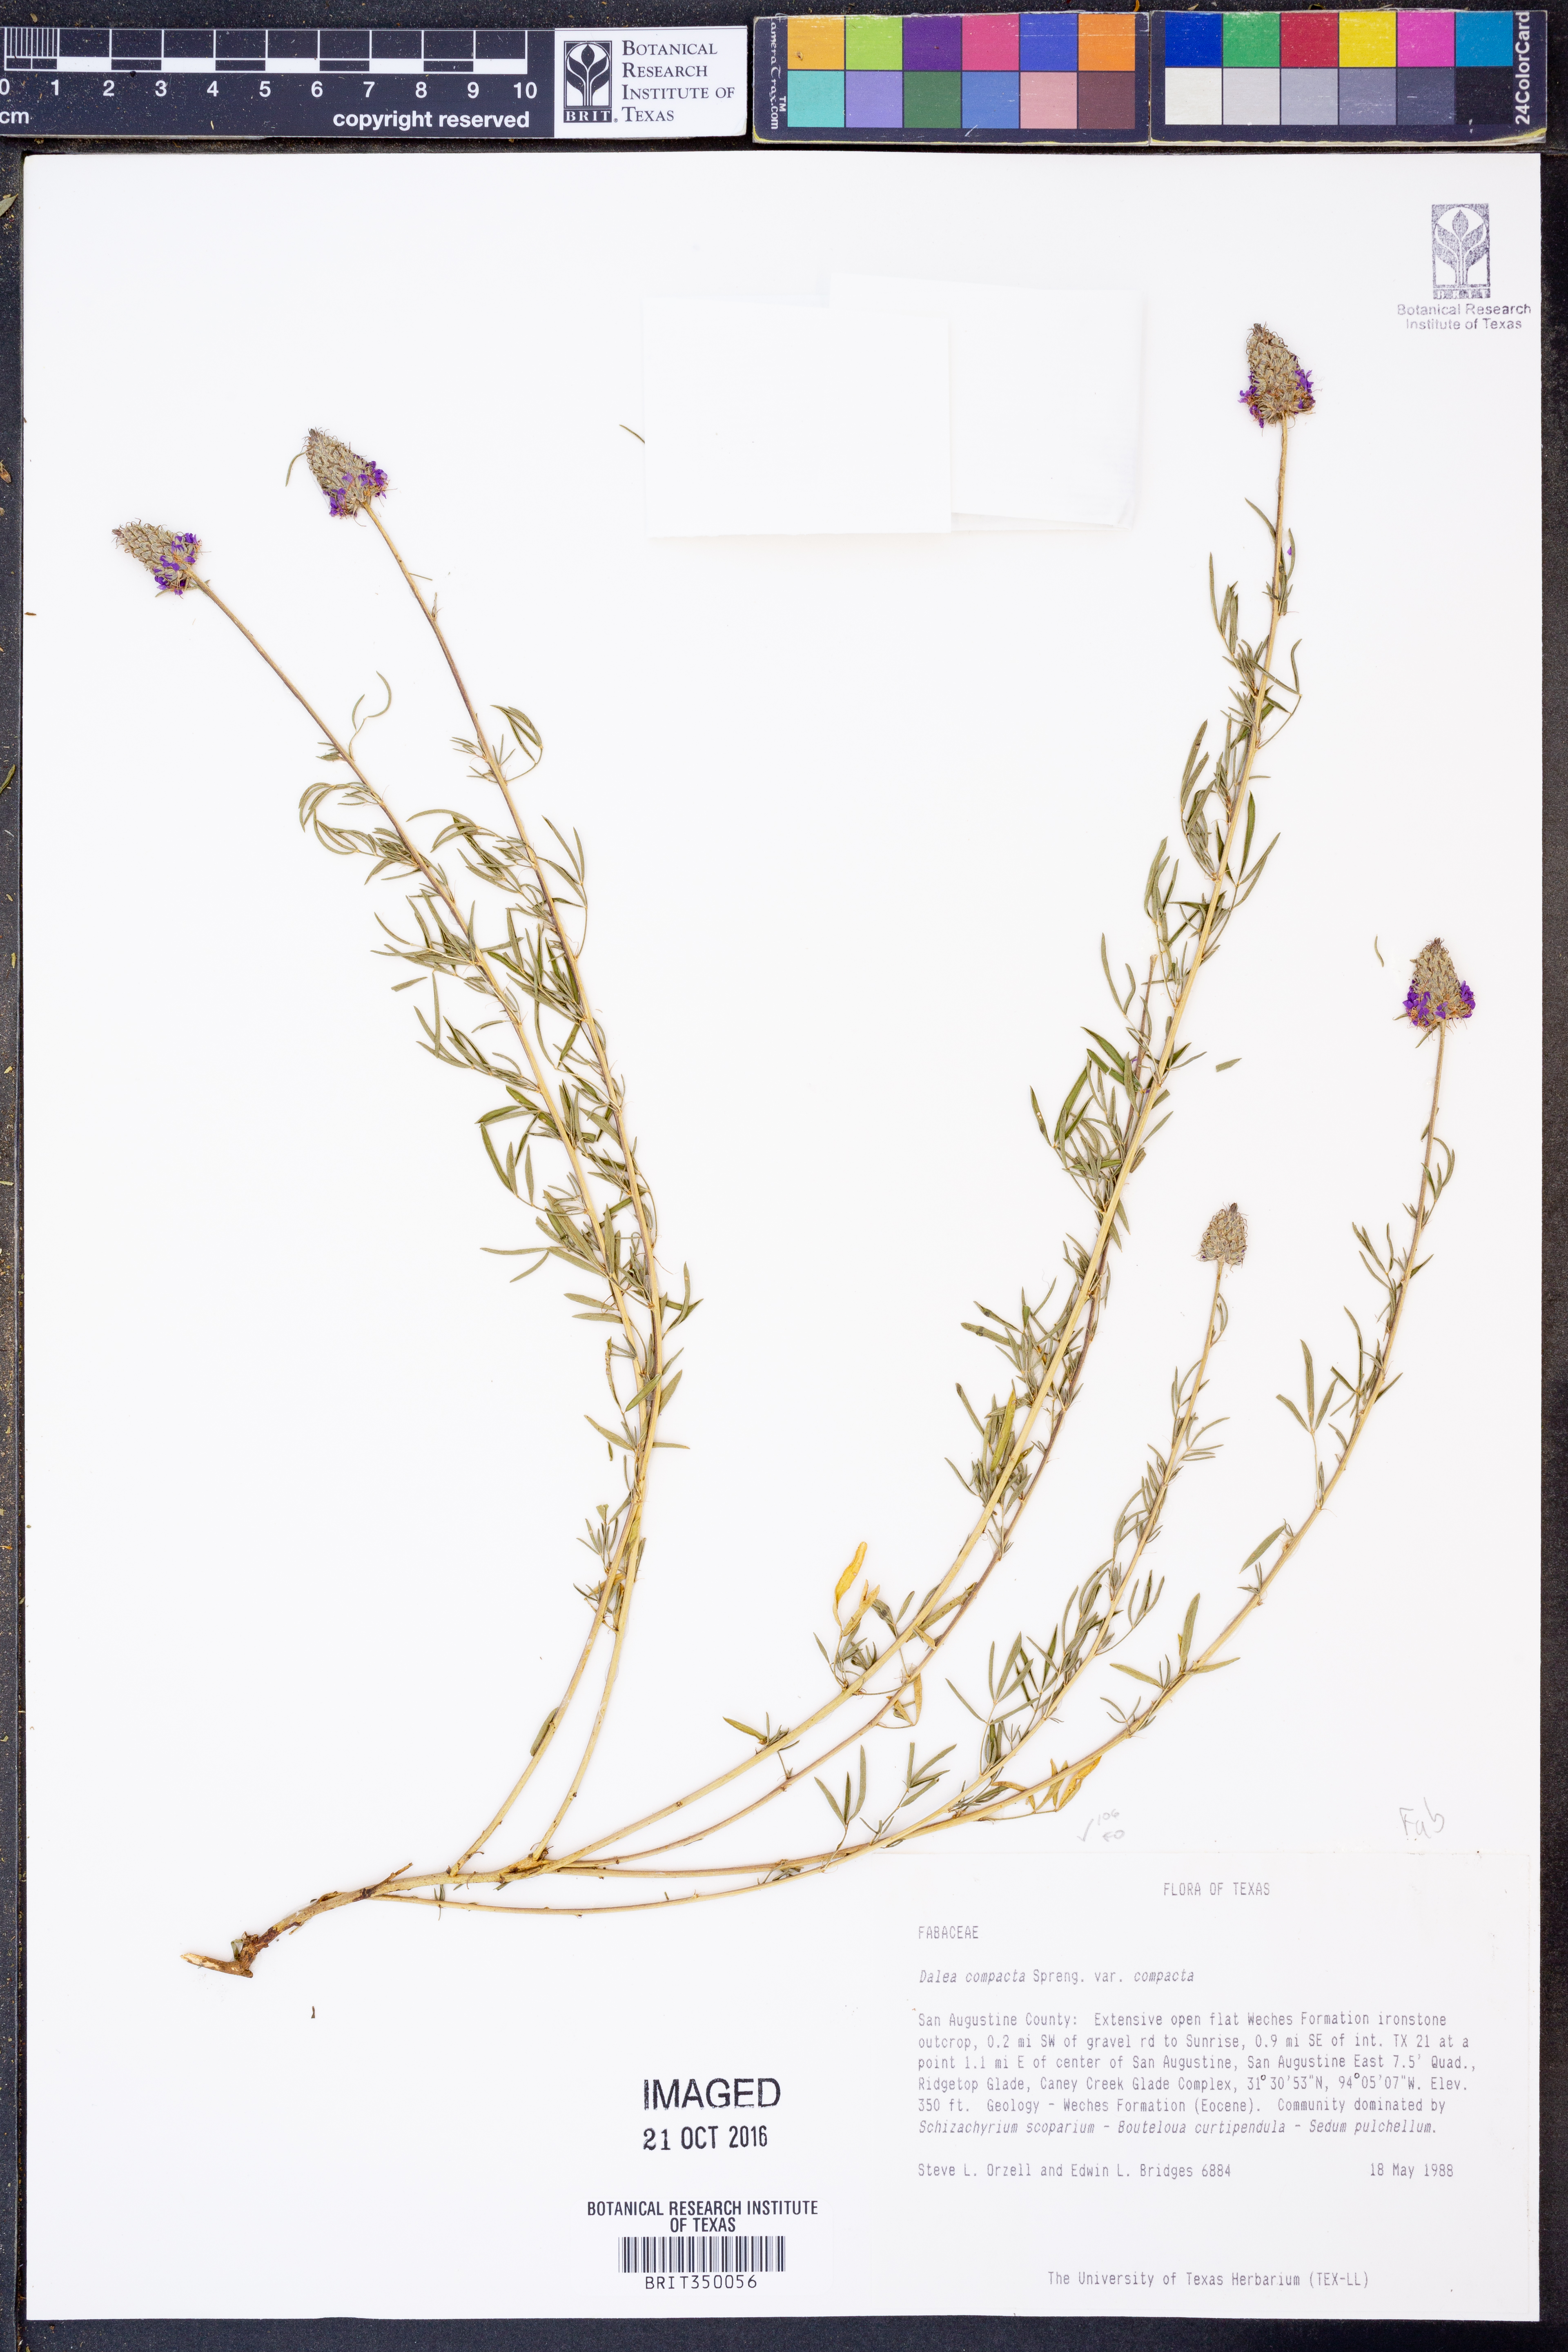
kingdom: Plantae
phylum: Tracheophyta
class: Magnoliopsida
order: Fabales
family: Fabaceae
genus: Dalea
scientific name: Dalea compacta
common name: Compact prairie-clover
